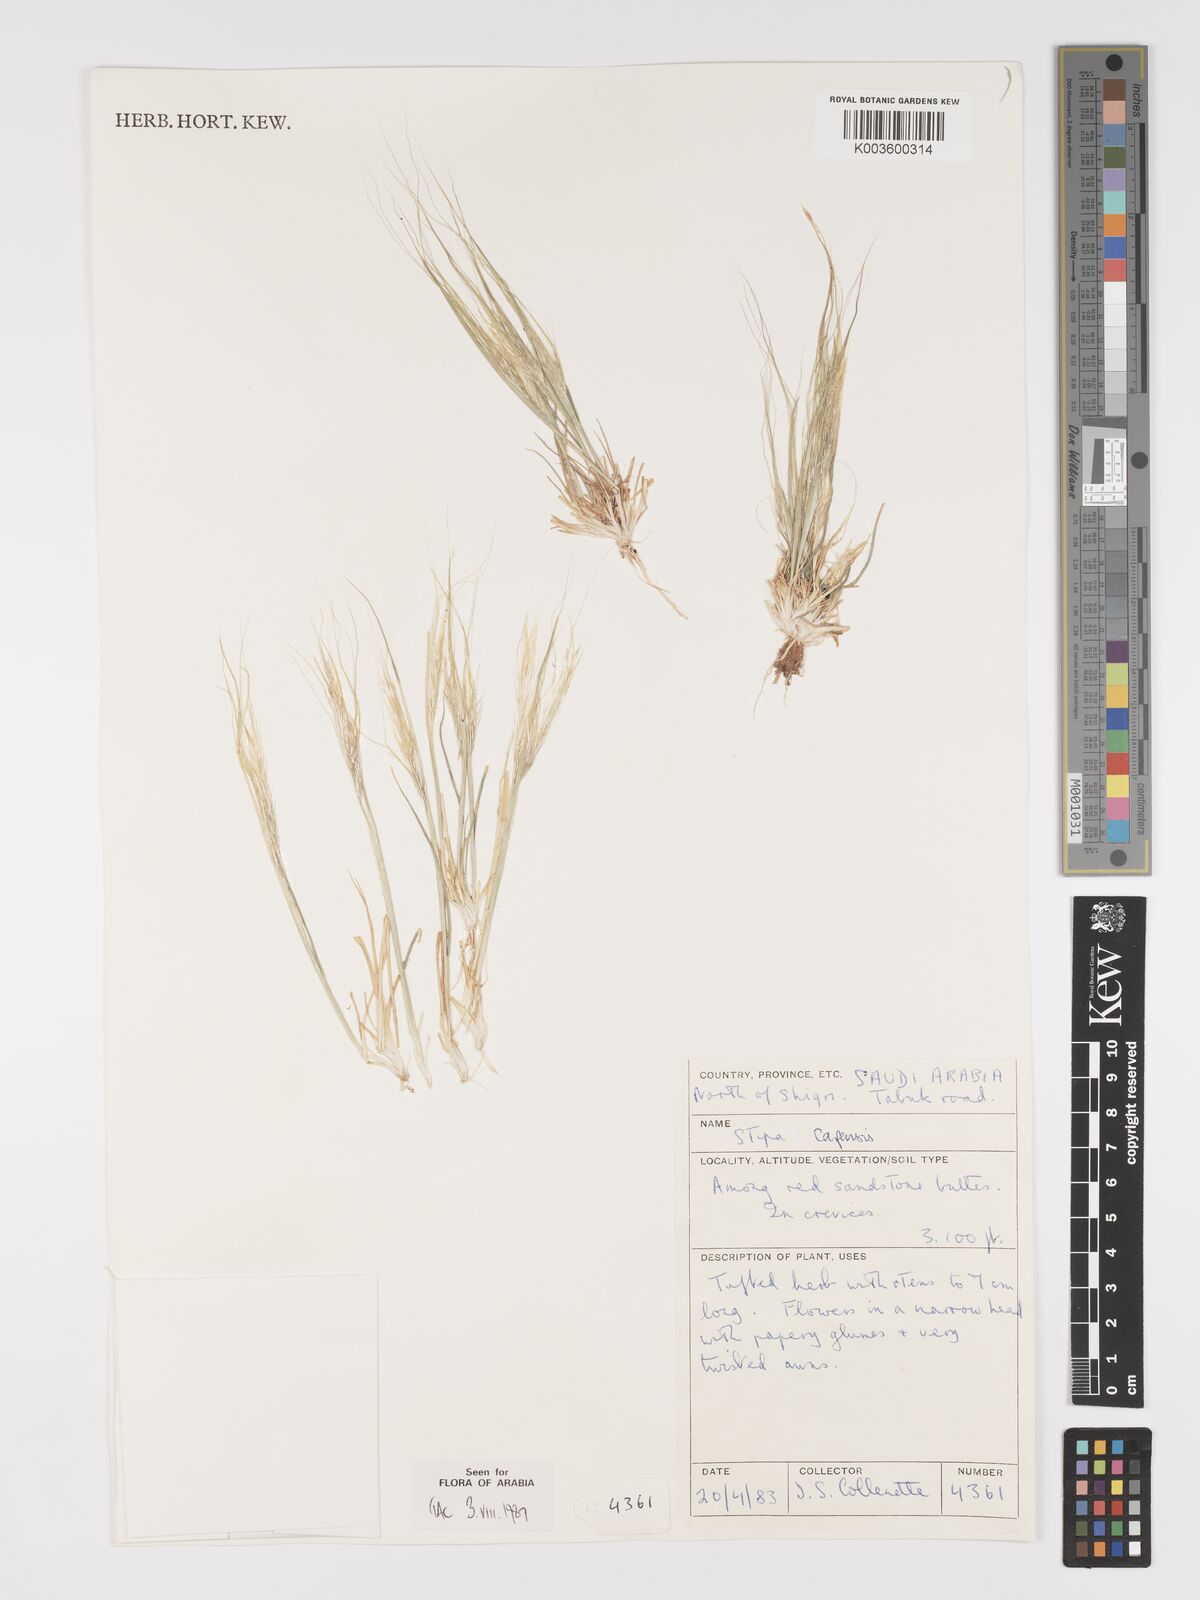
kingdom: Plantae
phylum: Tracheophyta
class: Liliopsida
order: Poales
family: Poaceae
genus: Stipellula
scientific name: Stipellula capensis
